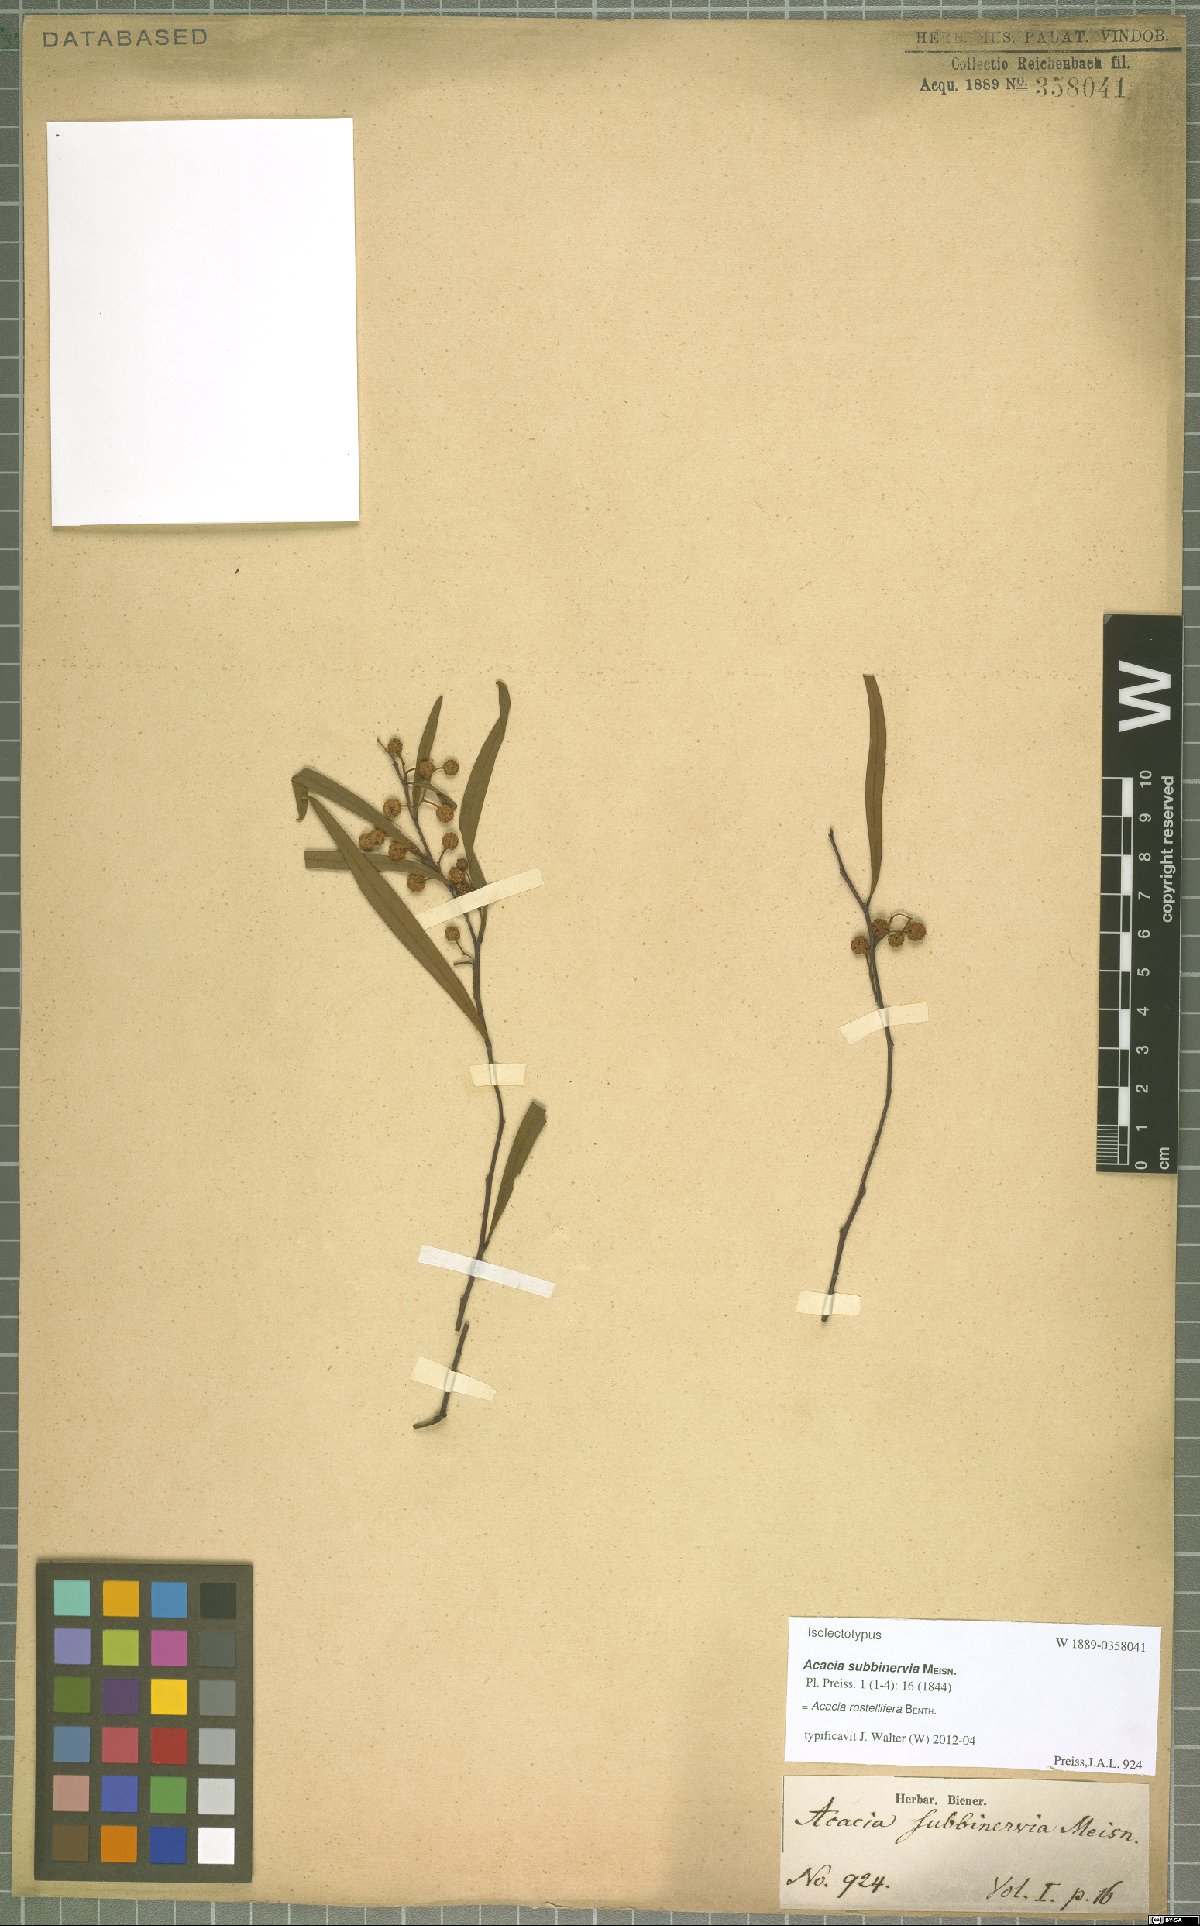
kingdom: Plantae
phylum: Tracheophyta
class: Magnoliopsida
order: Fabales
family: Fabaceae
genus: Acacia
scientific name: Acacia rostellifera
